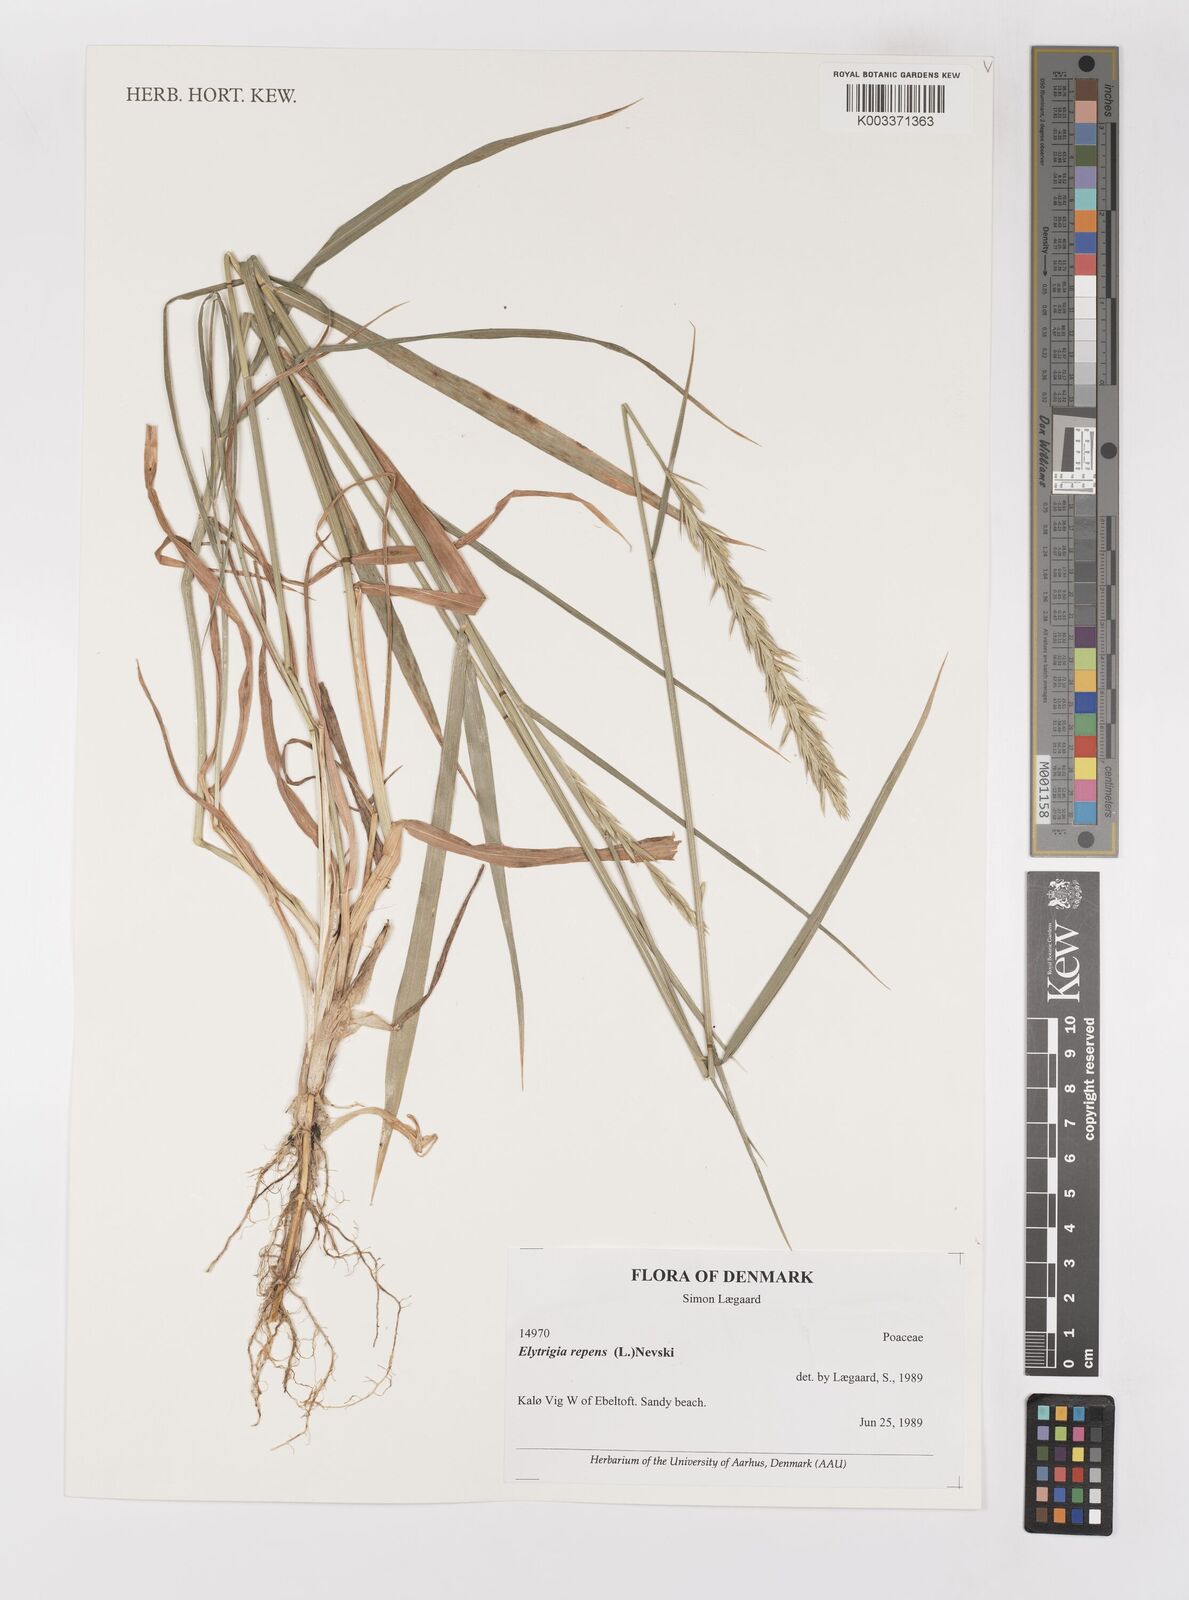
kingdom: Plantae
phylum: Tracheophyta
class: Liliopsida
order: Poales
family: Poaceae
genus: Elymus
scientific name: Elymus repens
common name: Quackgrass
